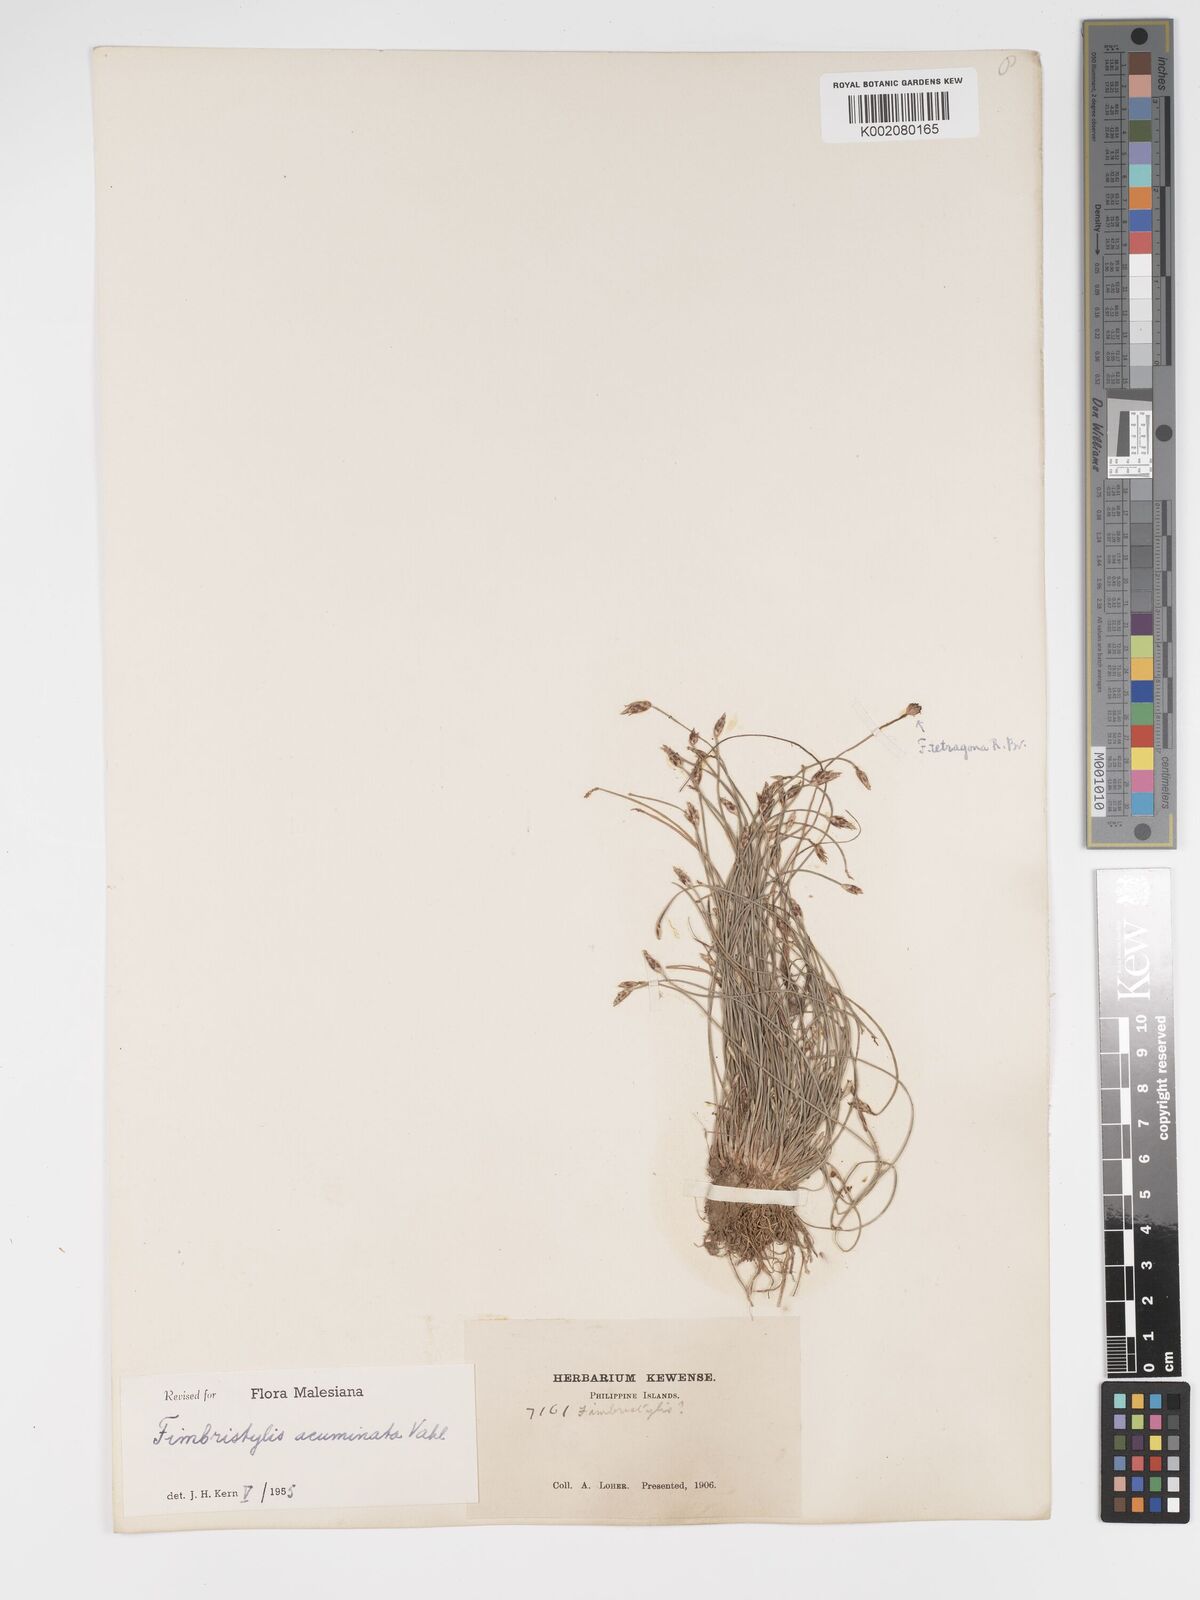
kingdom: Plantae
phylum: Tracheophyta
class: Liliopsida
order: Poales
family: Cyperaceae
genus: Fimbristylis
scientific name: Fimbristylis acuminata
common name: Pointed fimbristylis
